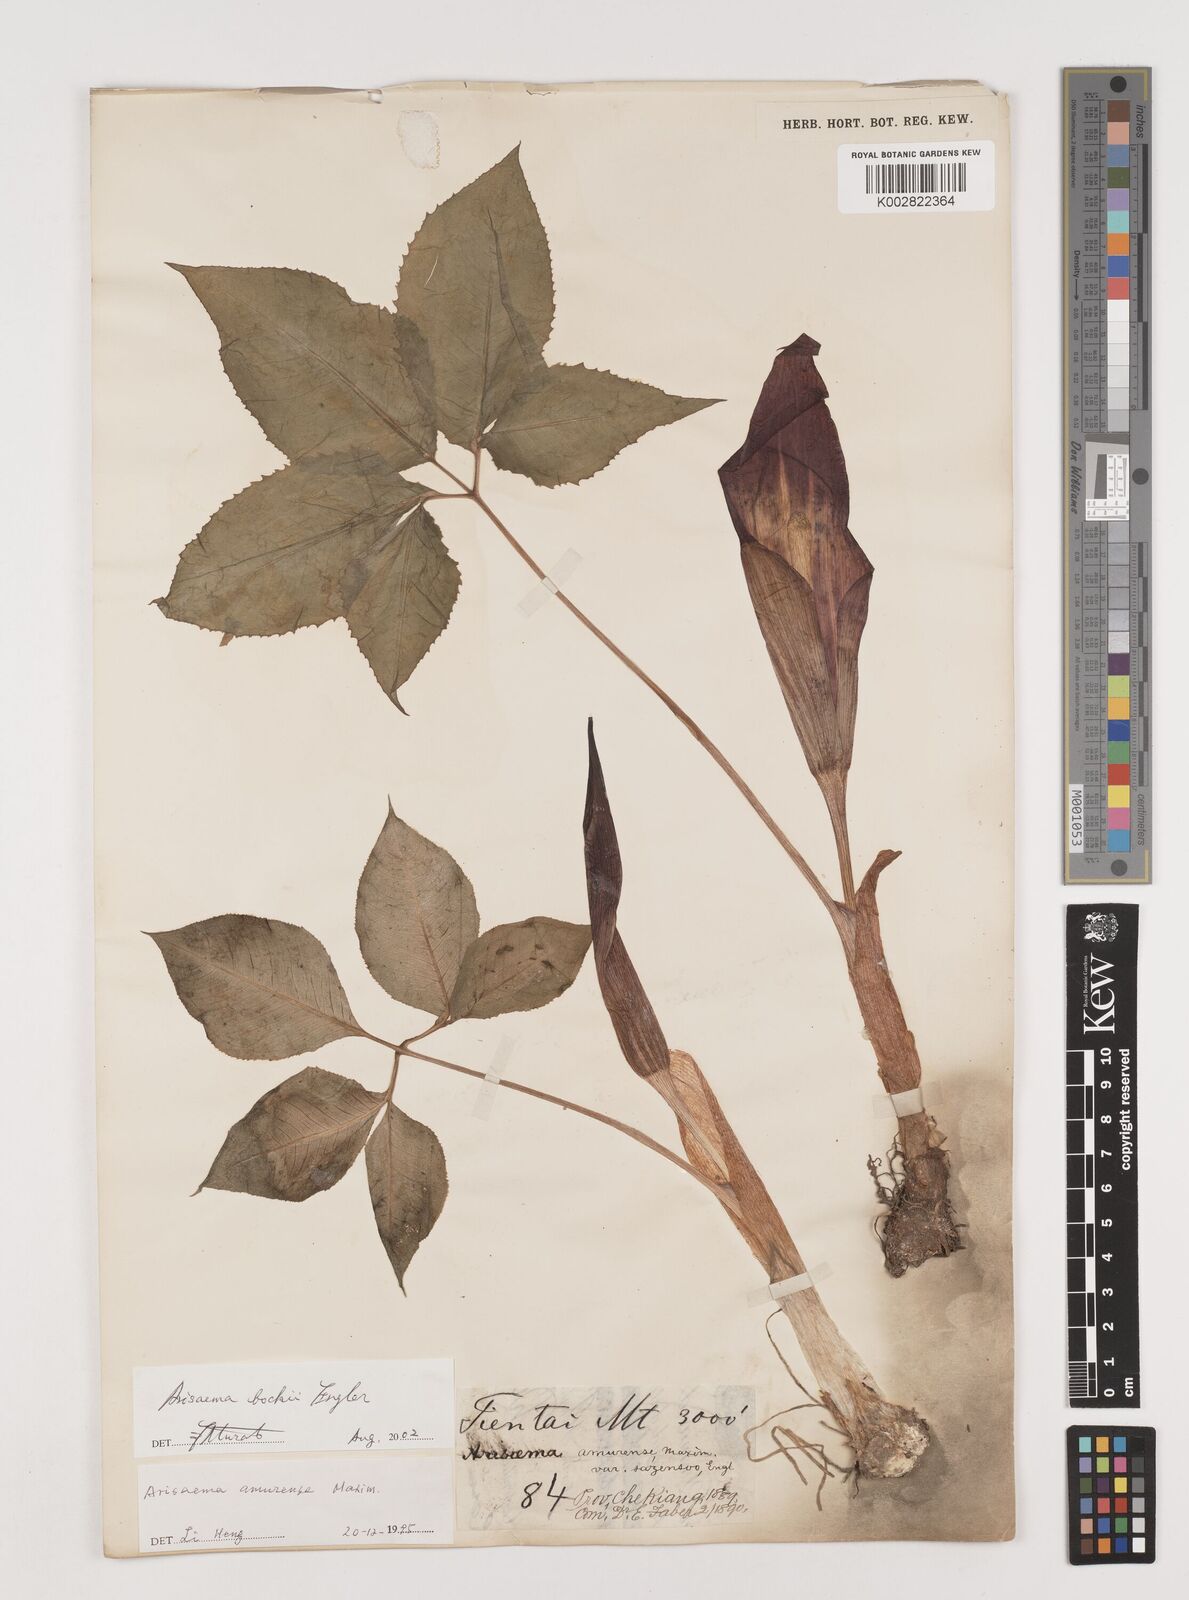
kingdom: Plantae
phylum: Tracheophyta
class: Liliopsida
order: Alismatales
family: Araceae
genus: Arisaema
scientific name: Arisaema bockii
